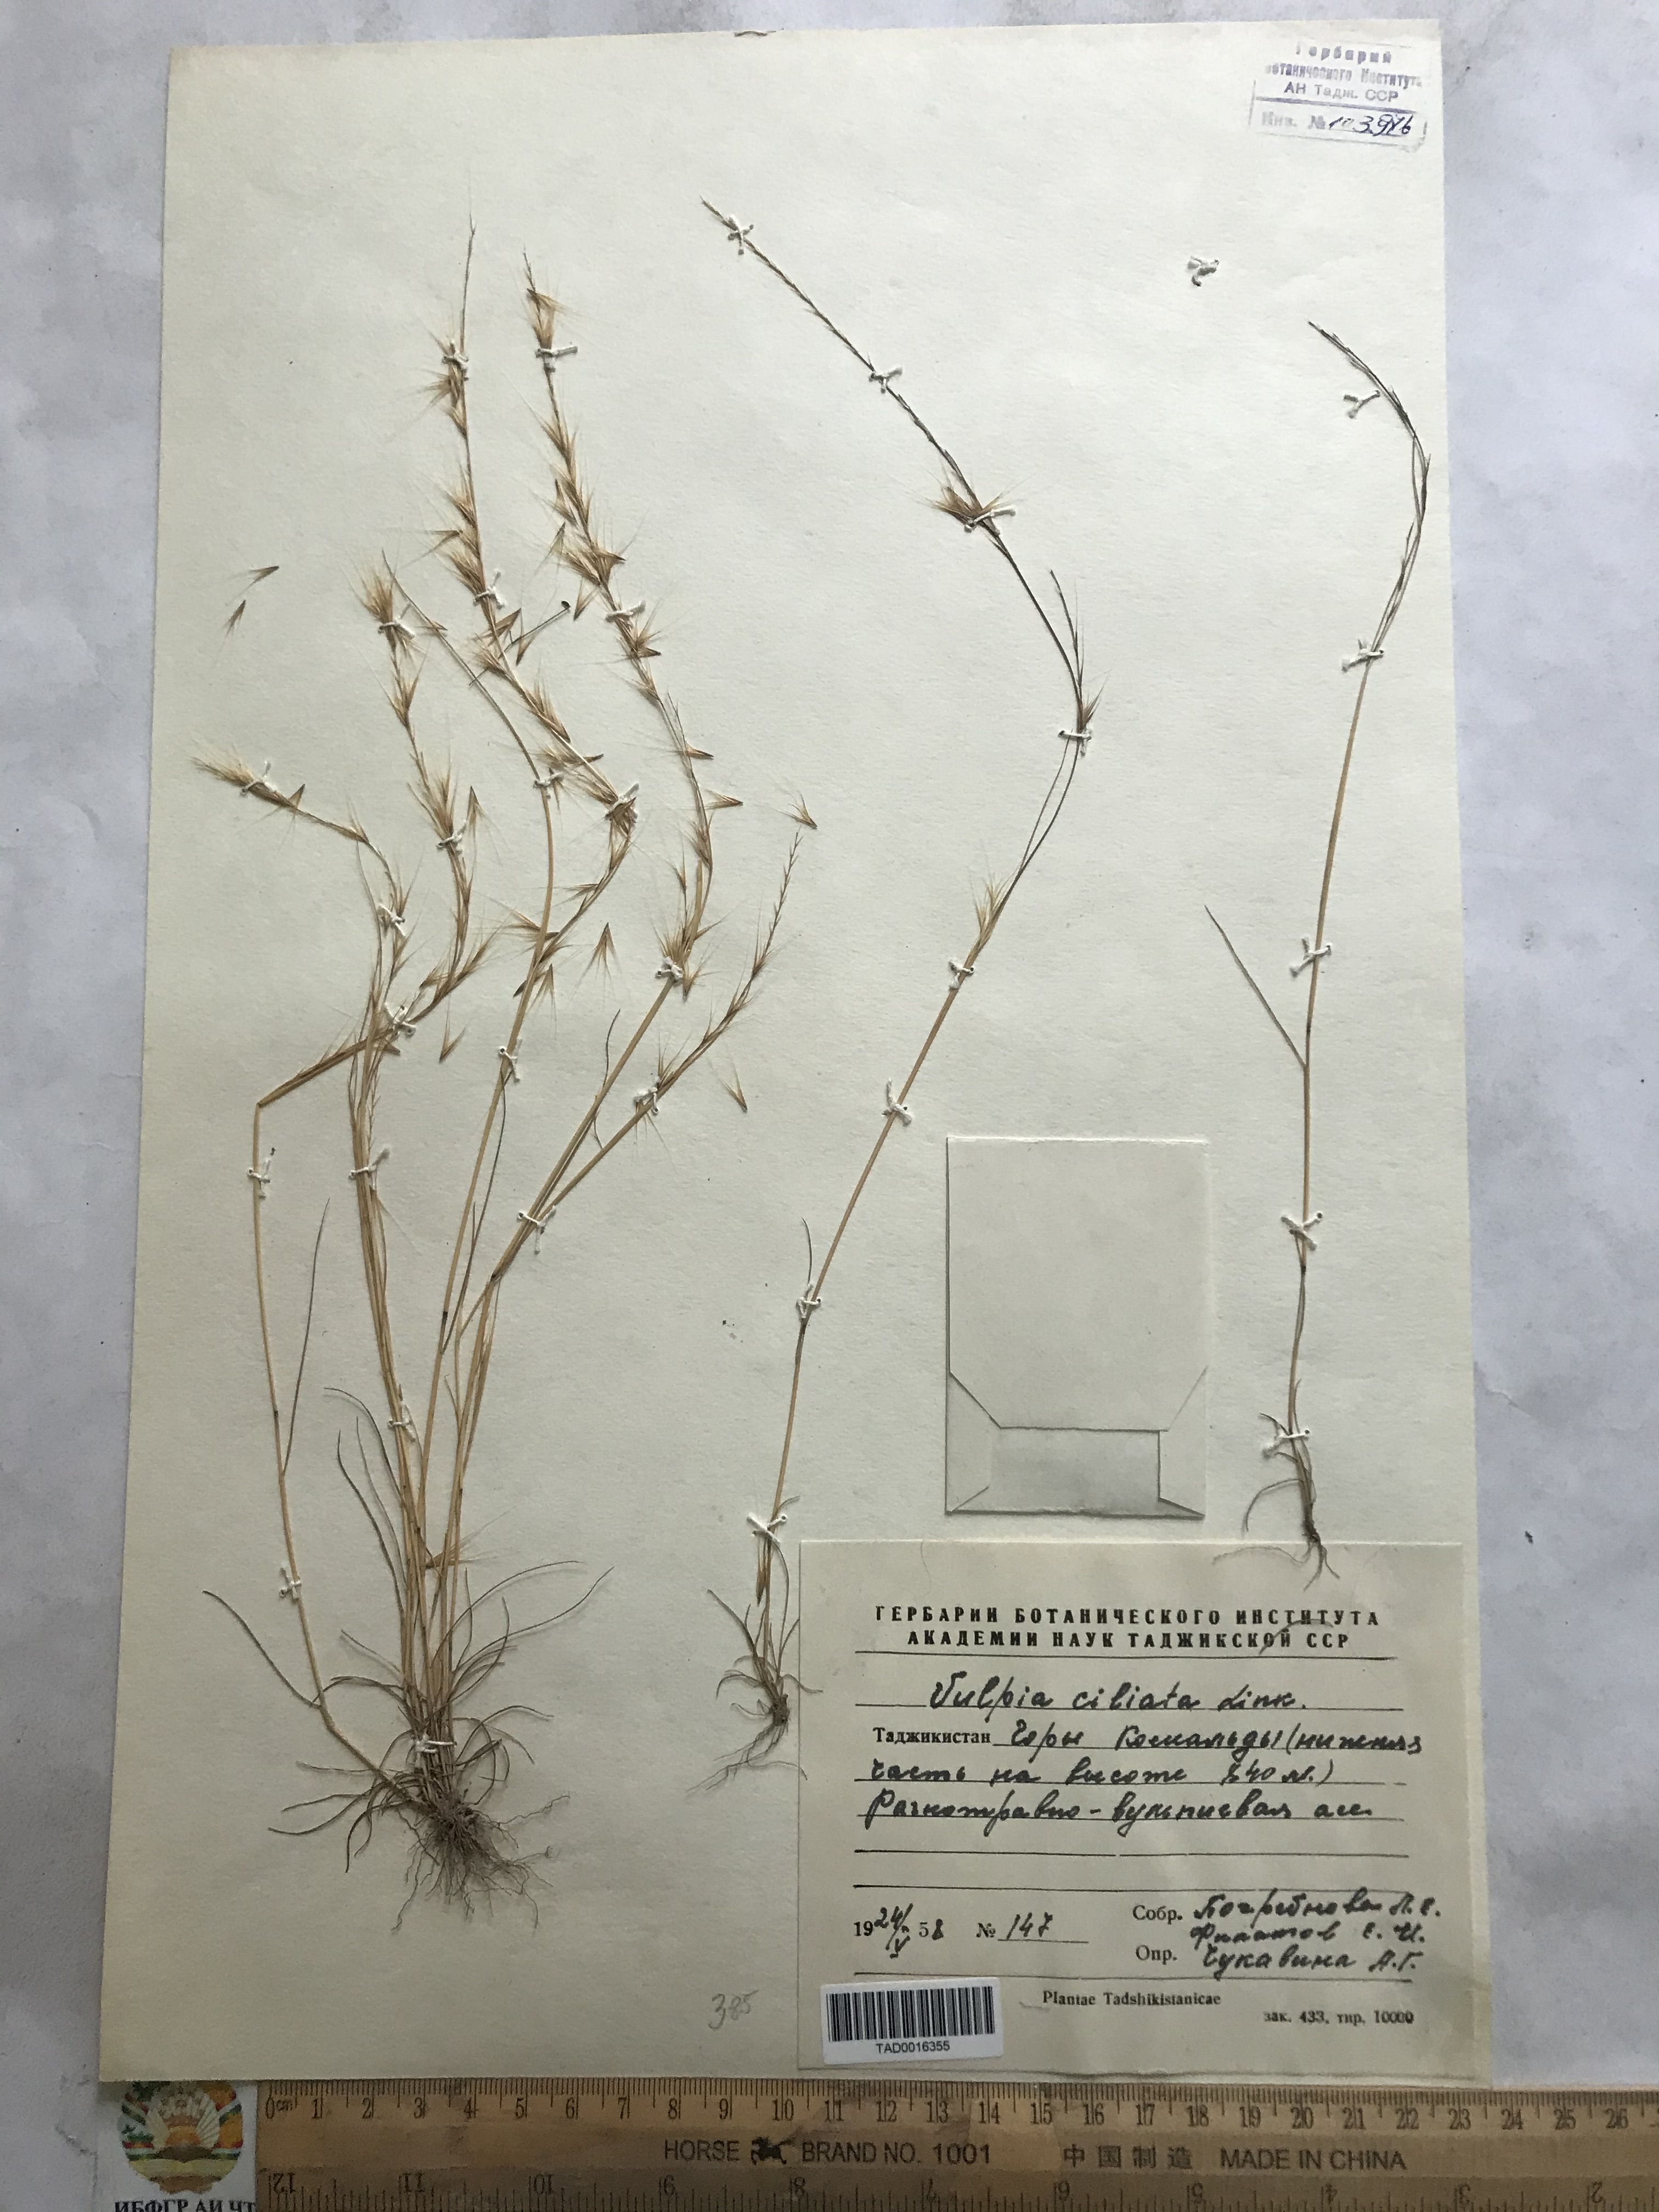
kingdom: Plantae
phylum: Tracheophyta
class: Liliopsida
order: Poales
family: Poaceae
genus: Festuca
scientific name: Festuca ambigua
